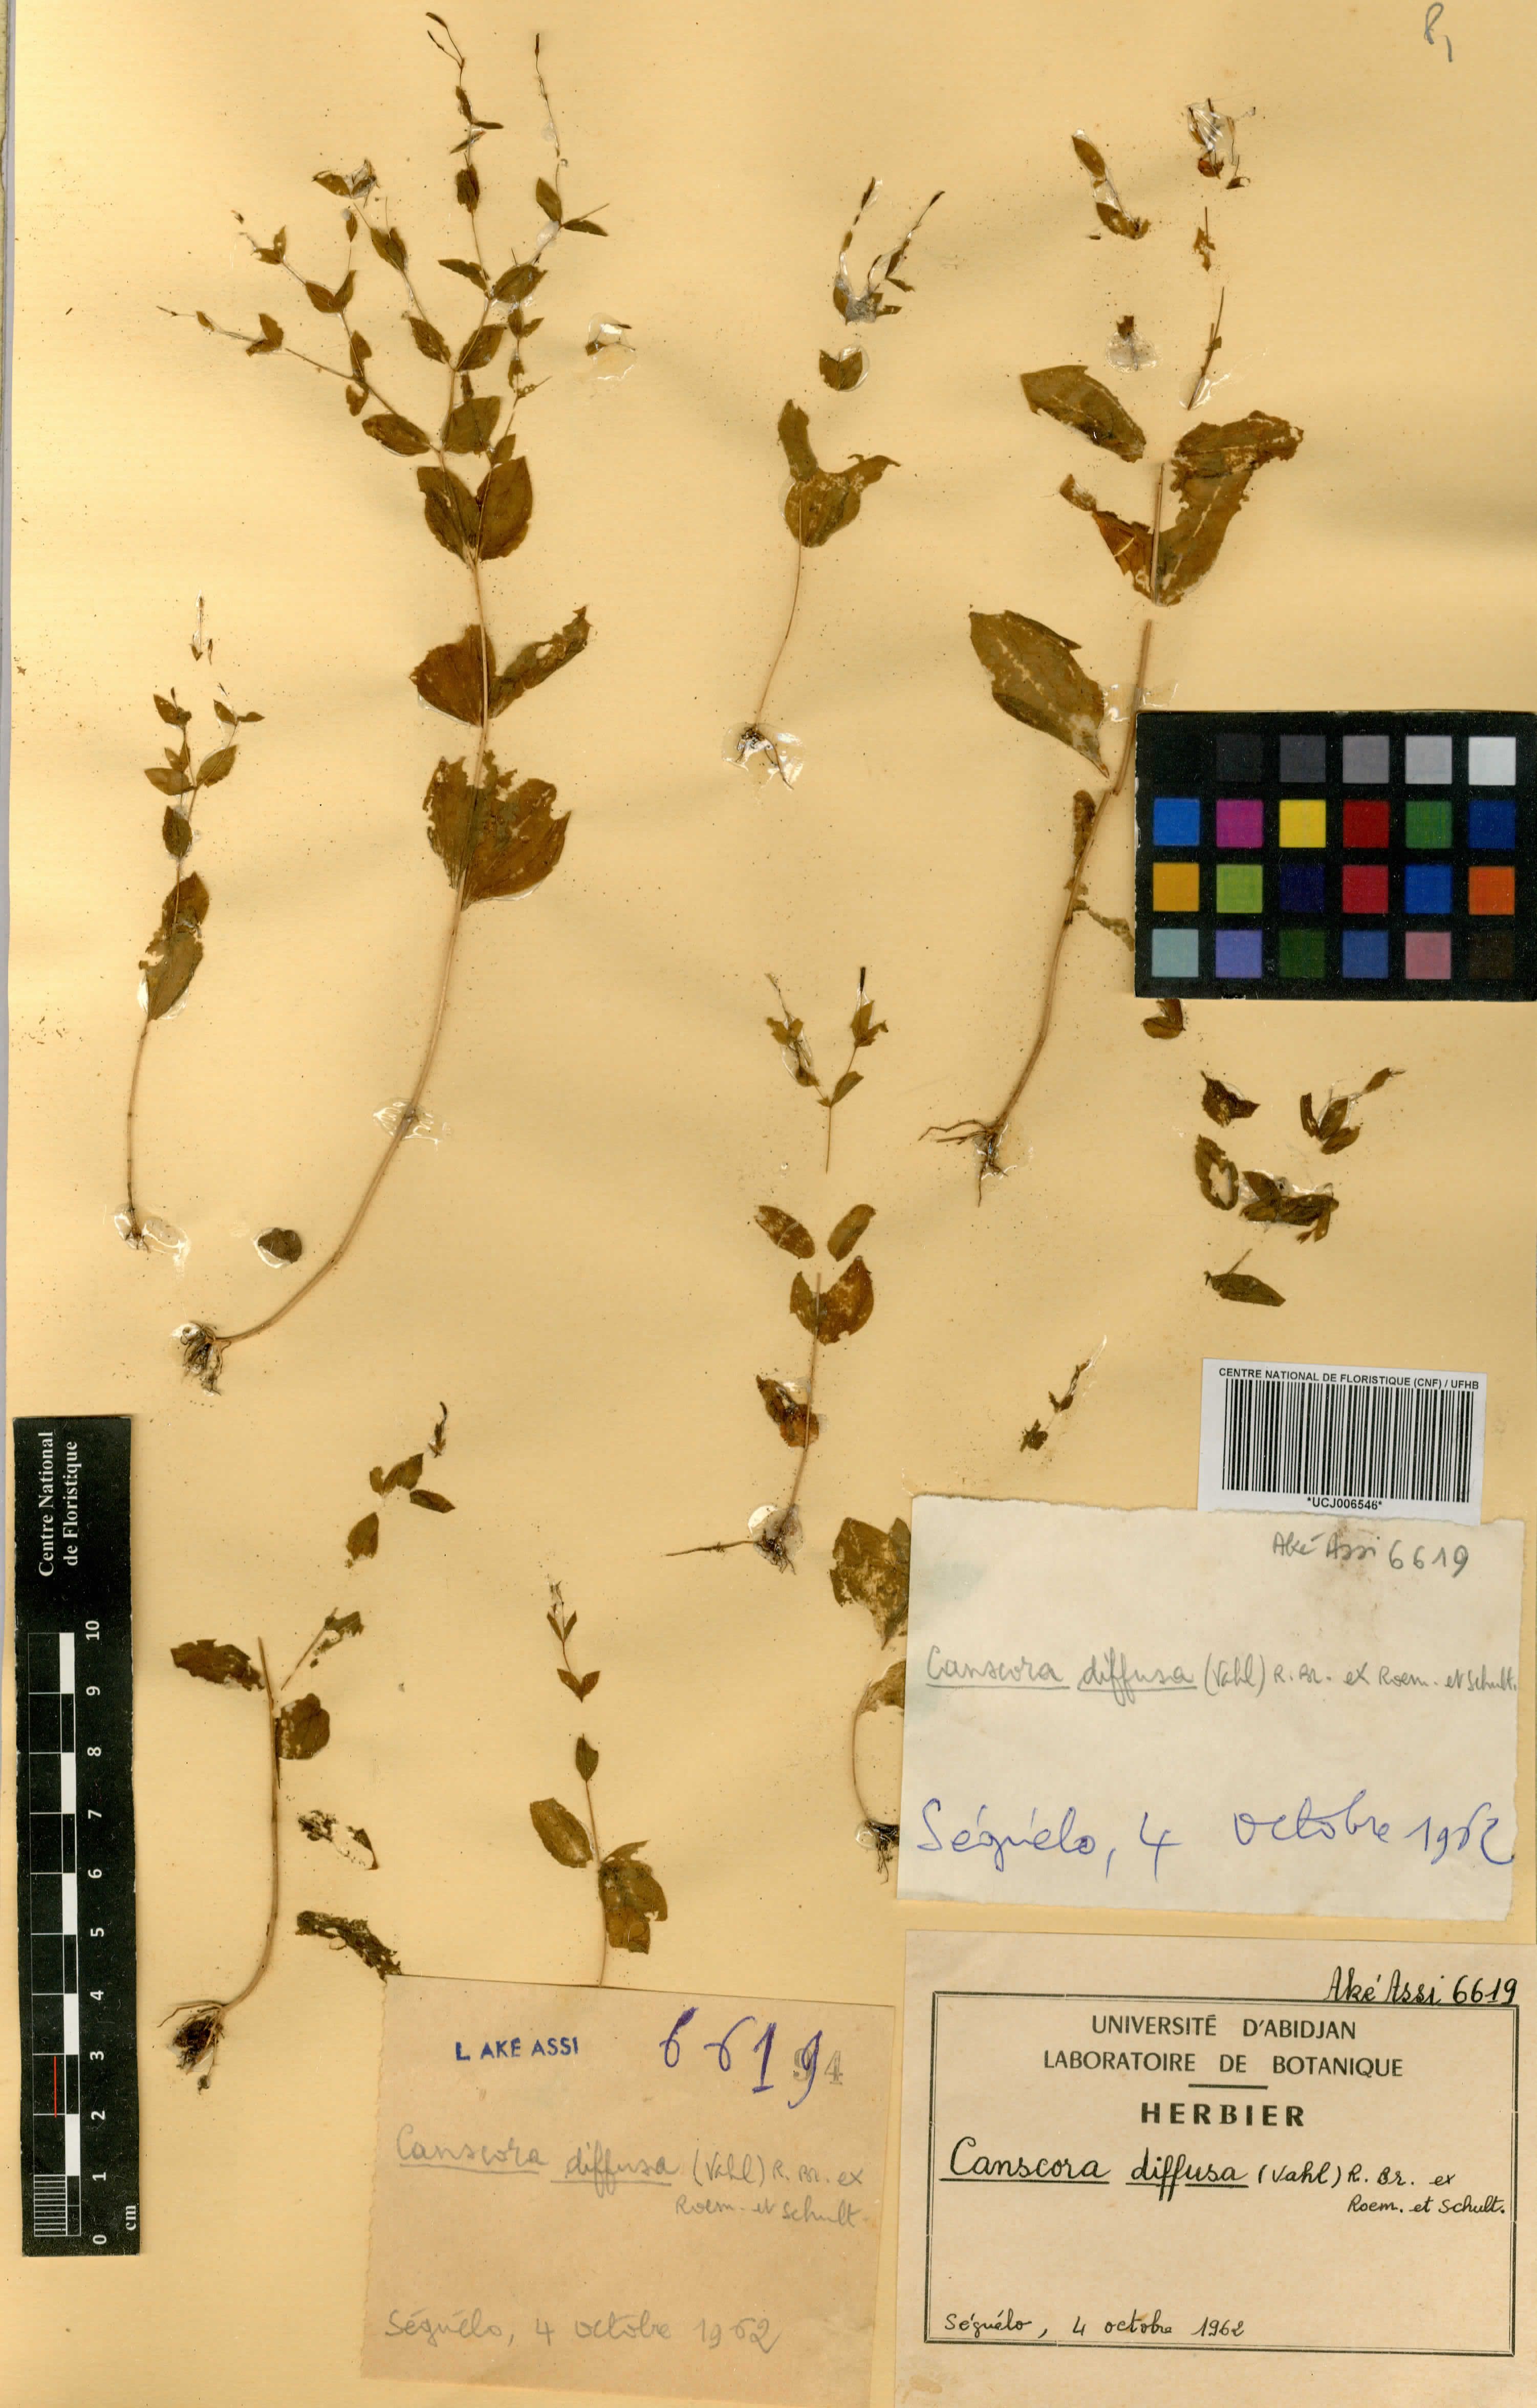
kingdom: Plantae
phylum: Tracheophyta
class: Magnoliopsida
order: Gentianales
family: Gentianaceae
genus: Canscora
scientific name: Canscora diffusa
